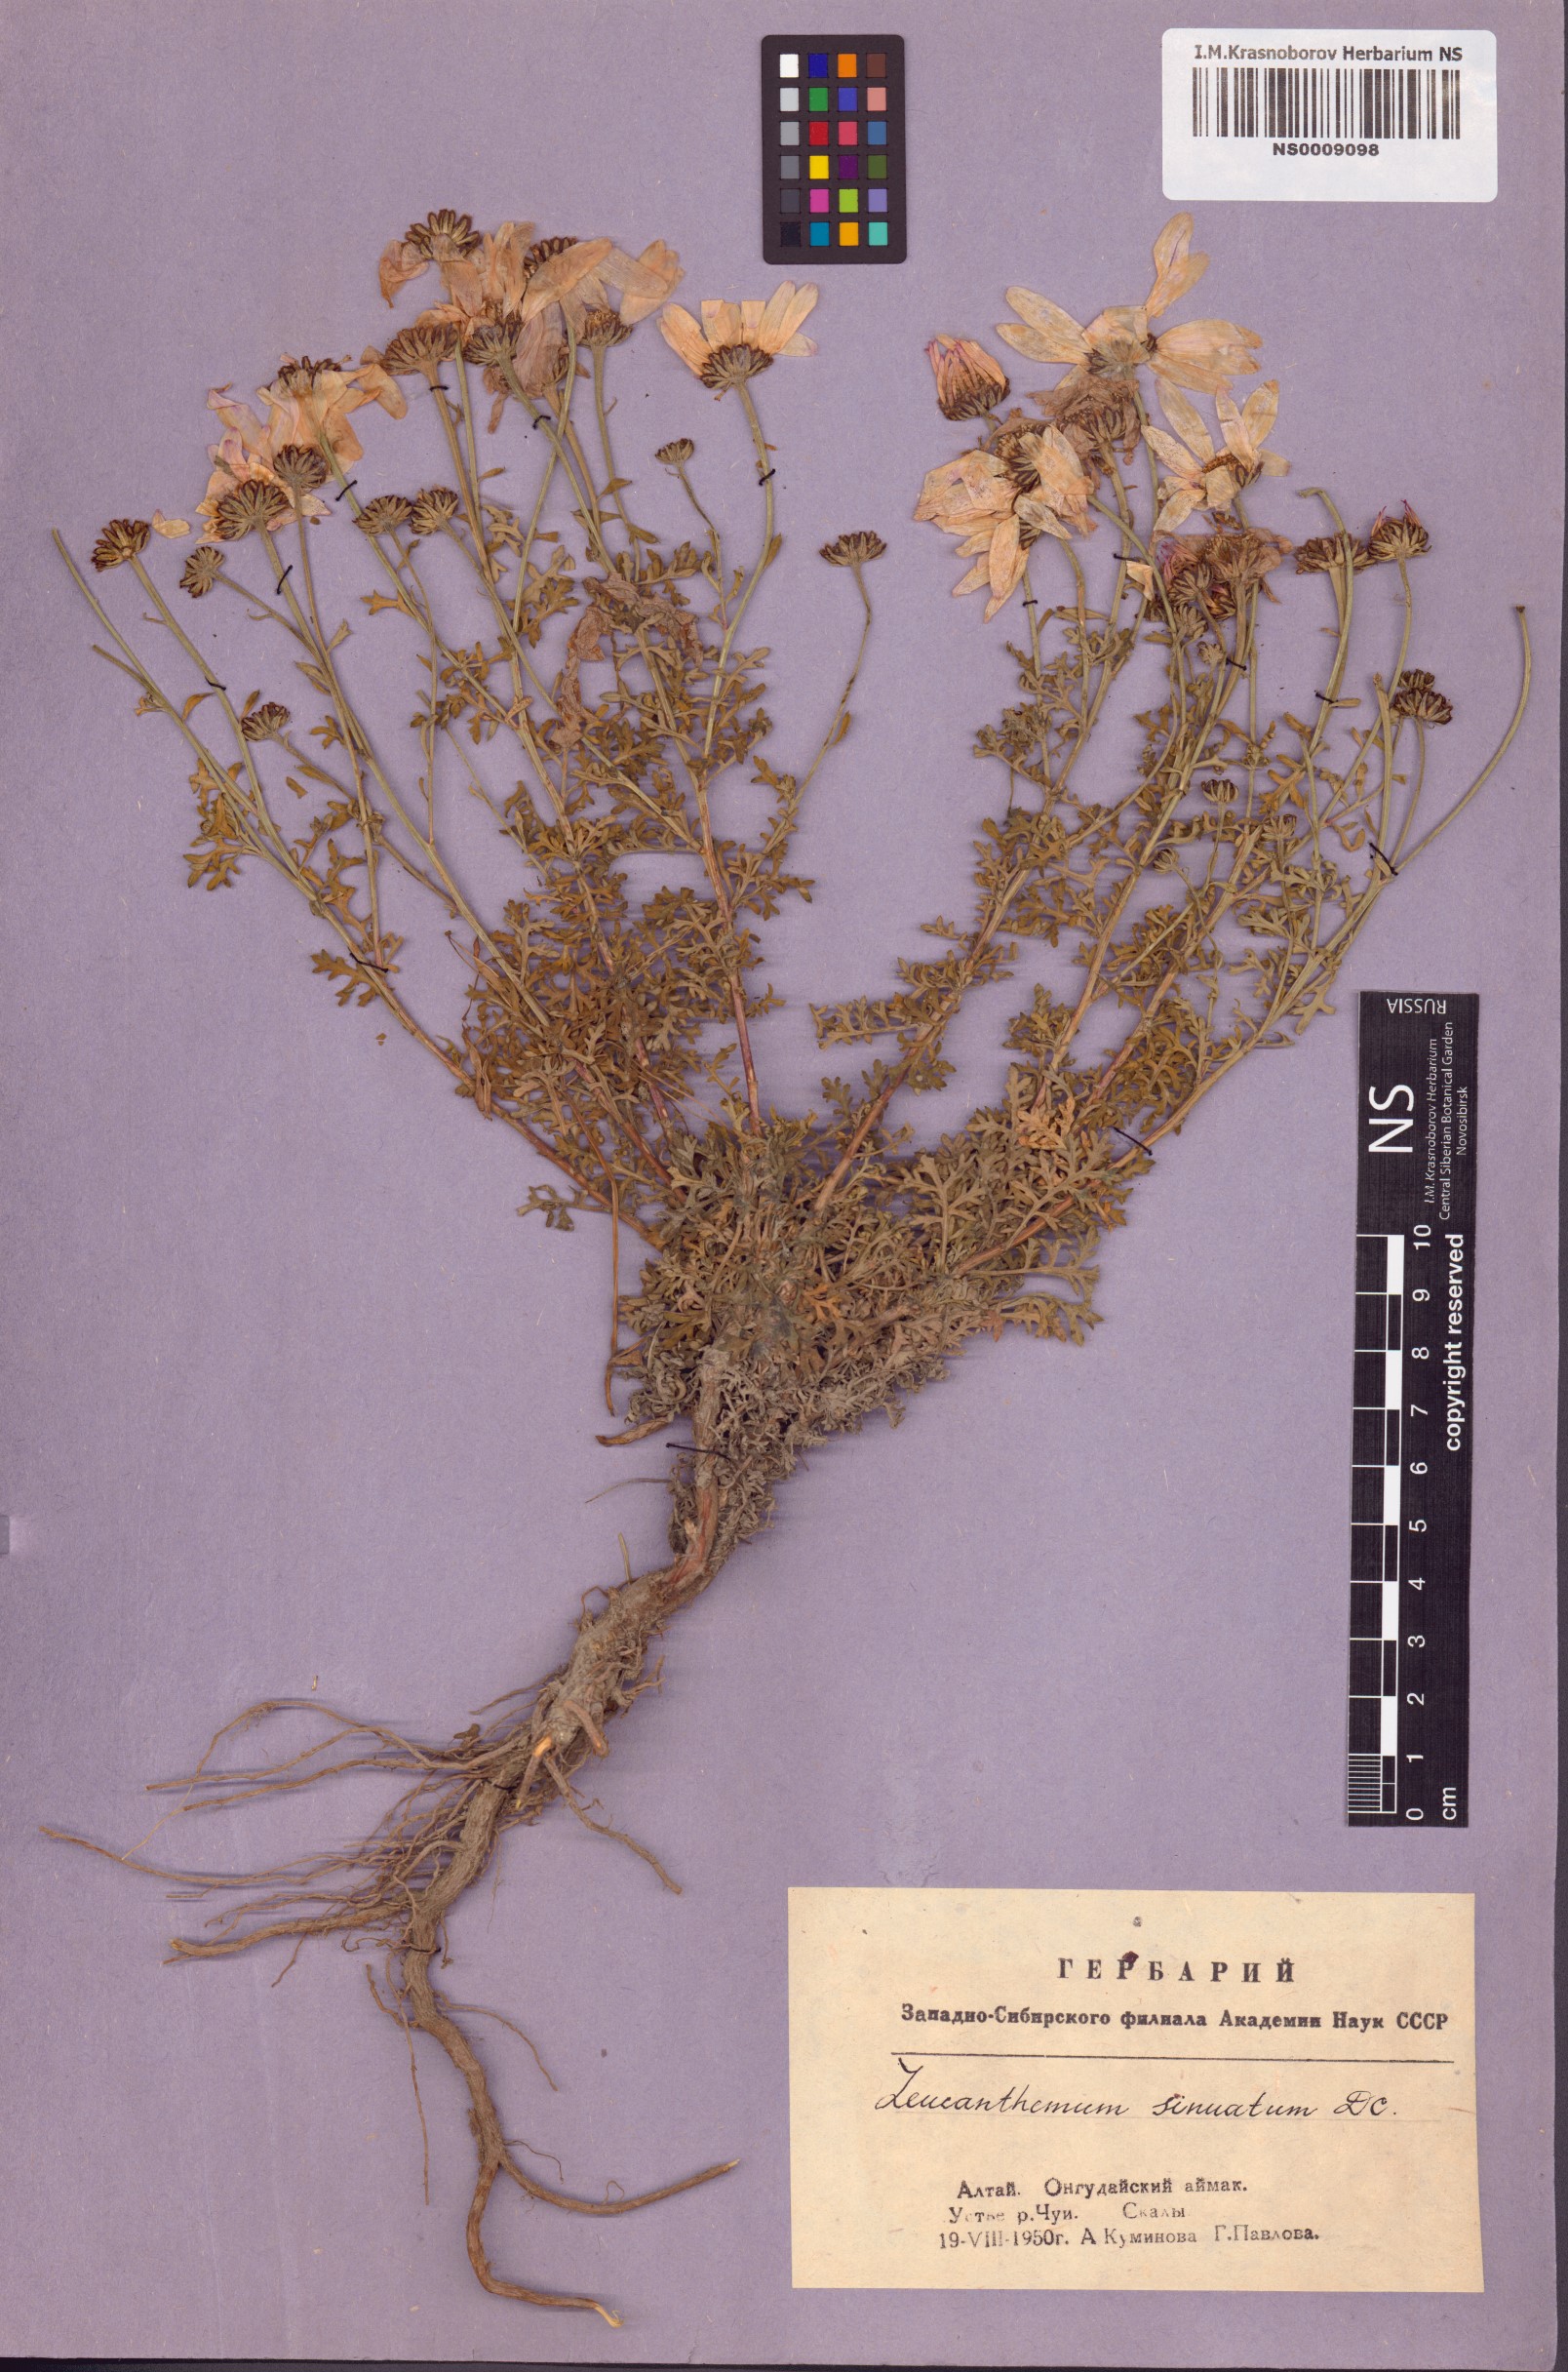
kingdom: Plantae
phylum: Tracheophyta
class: Magnoliopsida
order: Asterales
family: Asteraceae
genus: Chrysanthemum
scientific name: Chrysanthemum sinuatum
